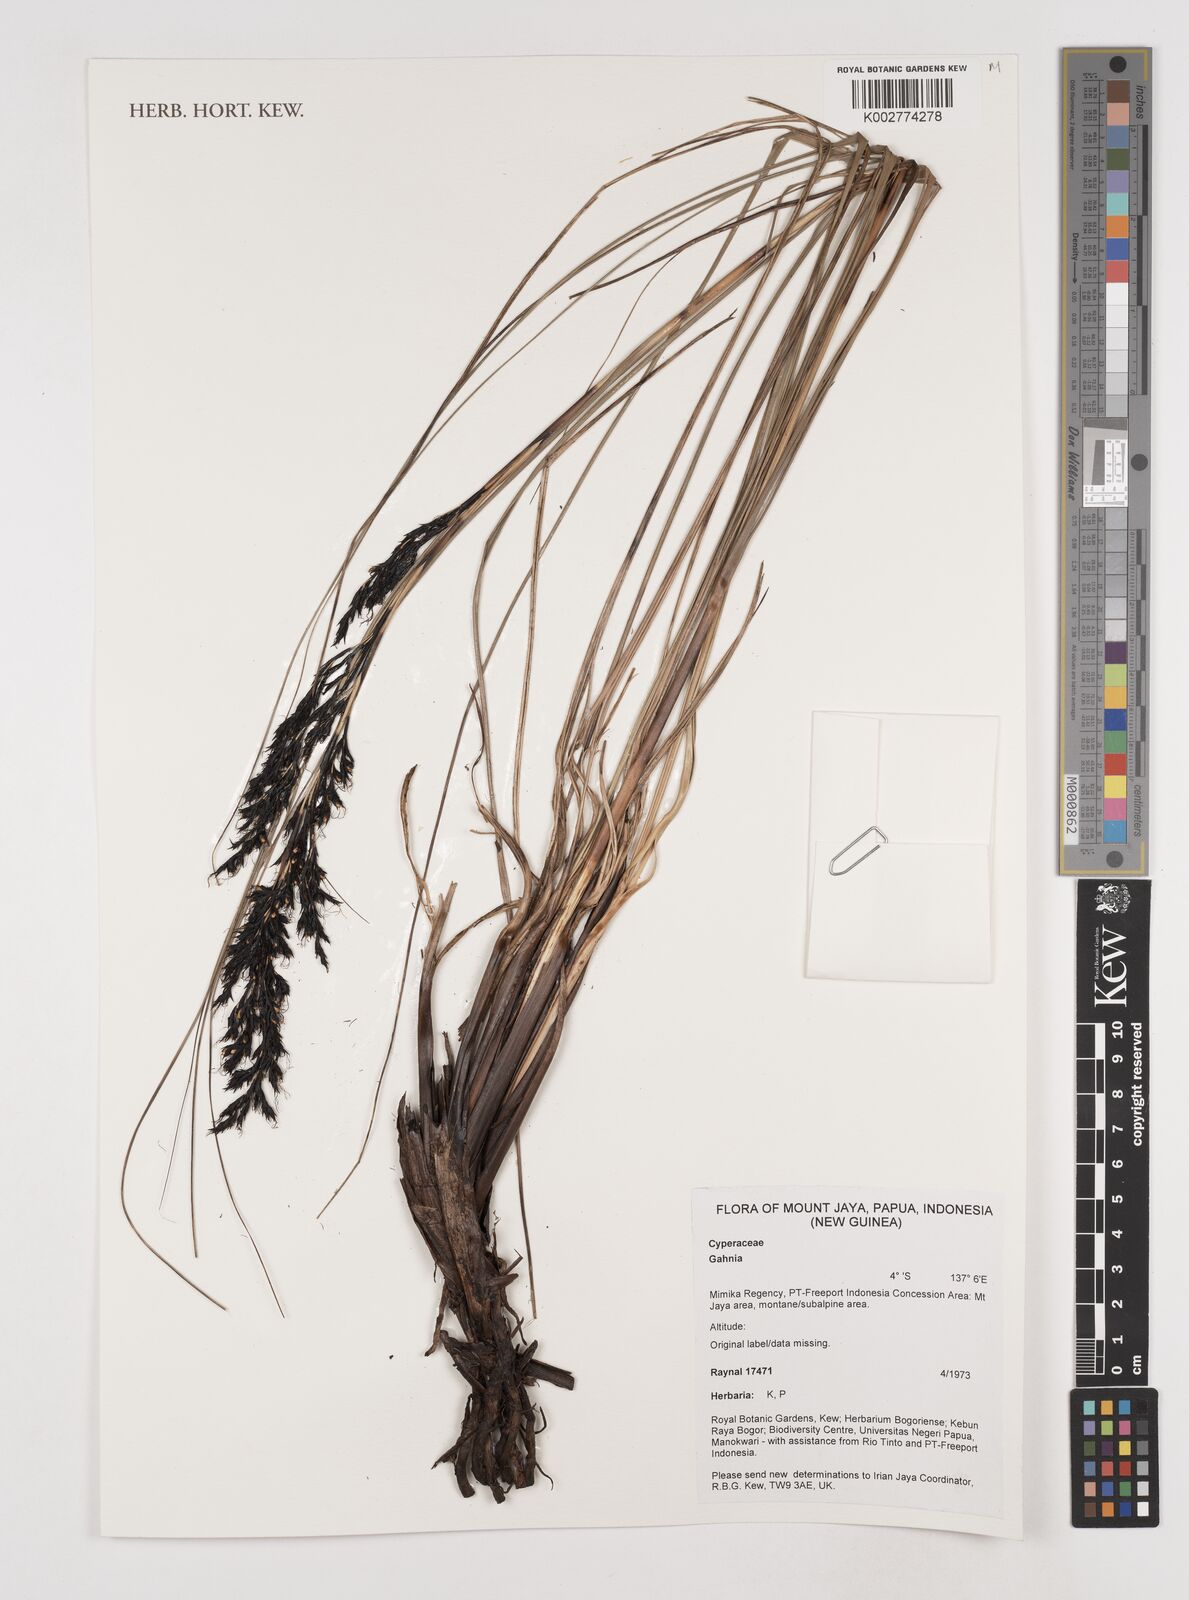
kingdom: Plantae
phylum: Tracheophyta
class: Liliopsida
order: Poales
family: Cyperaceae
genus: Gahnia
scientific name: Gahnia
